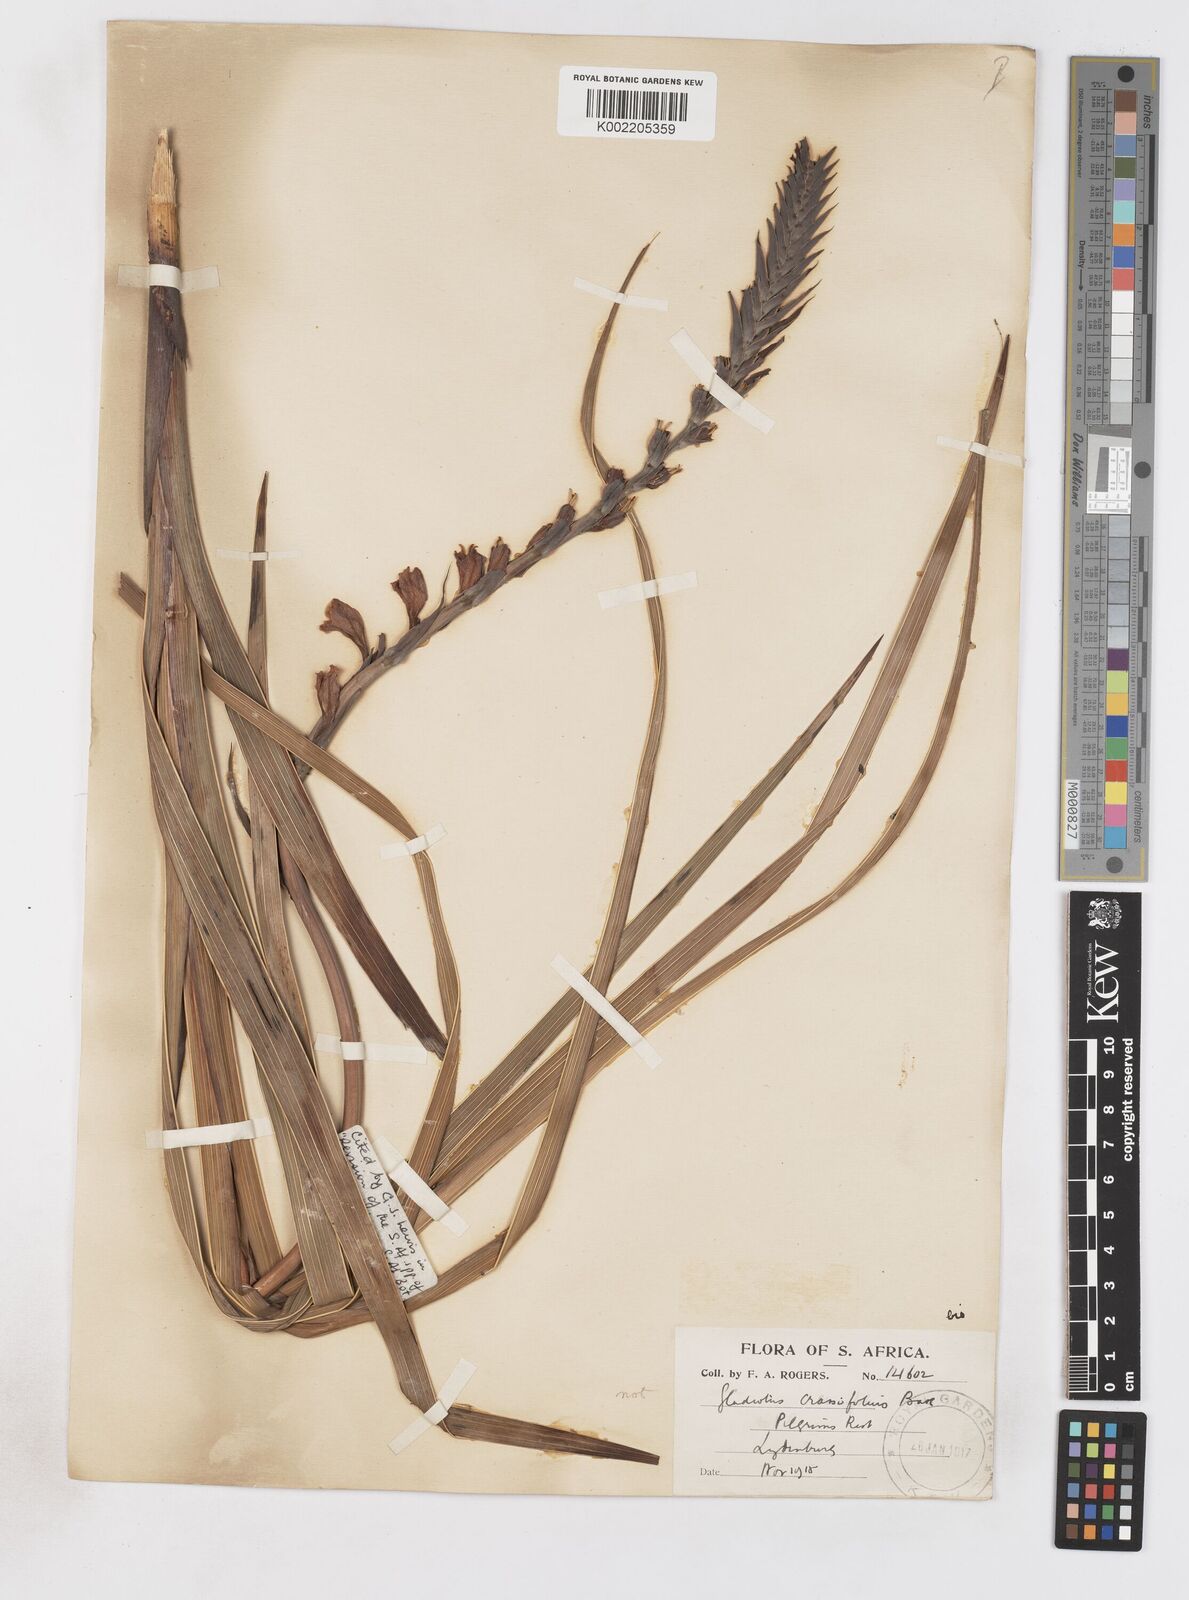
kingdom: Plantae
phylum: Tracheophyta
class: Liliopsida
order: Asparagales
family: Iridaceae
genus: Gladiolus
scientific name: Gladiolus crassifolius
